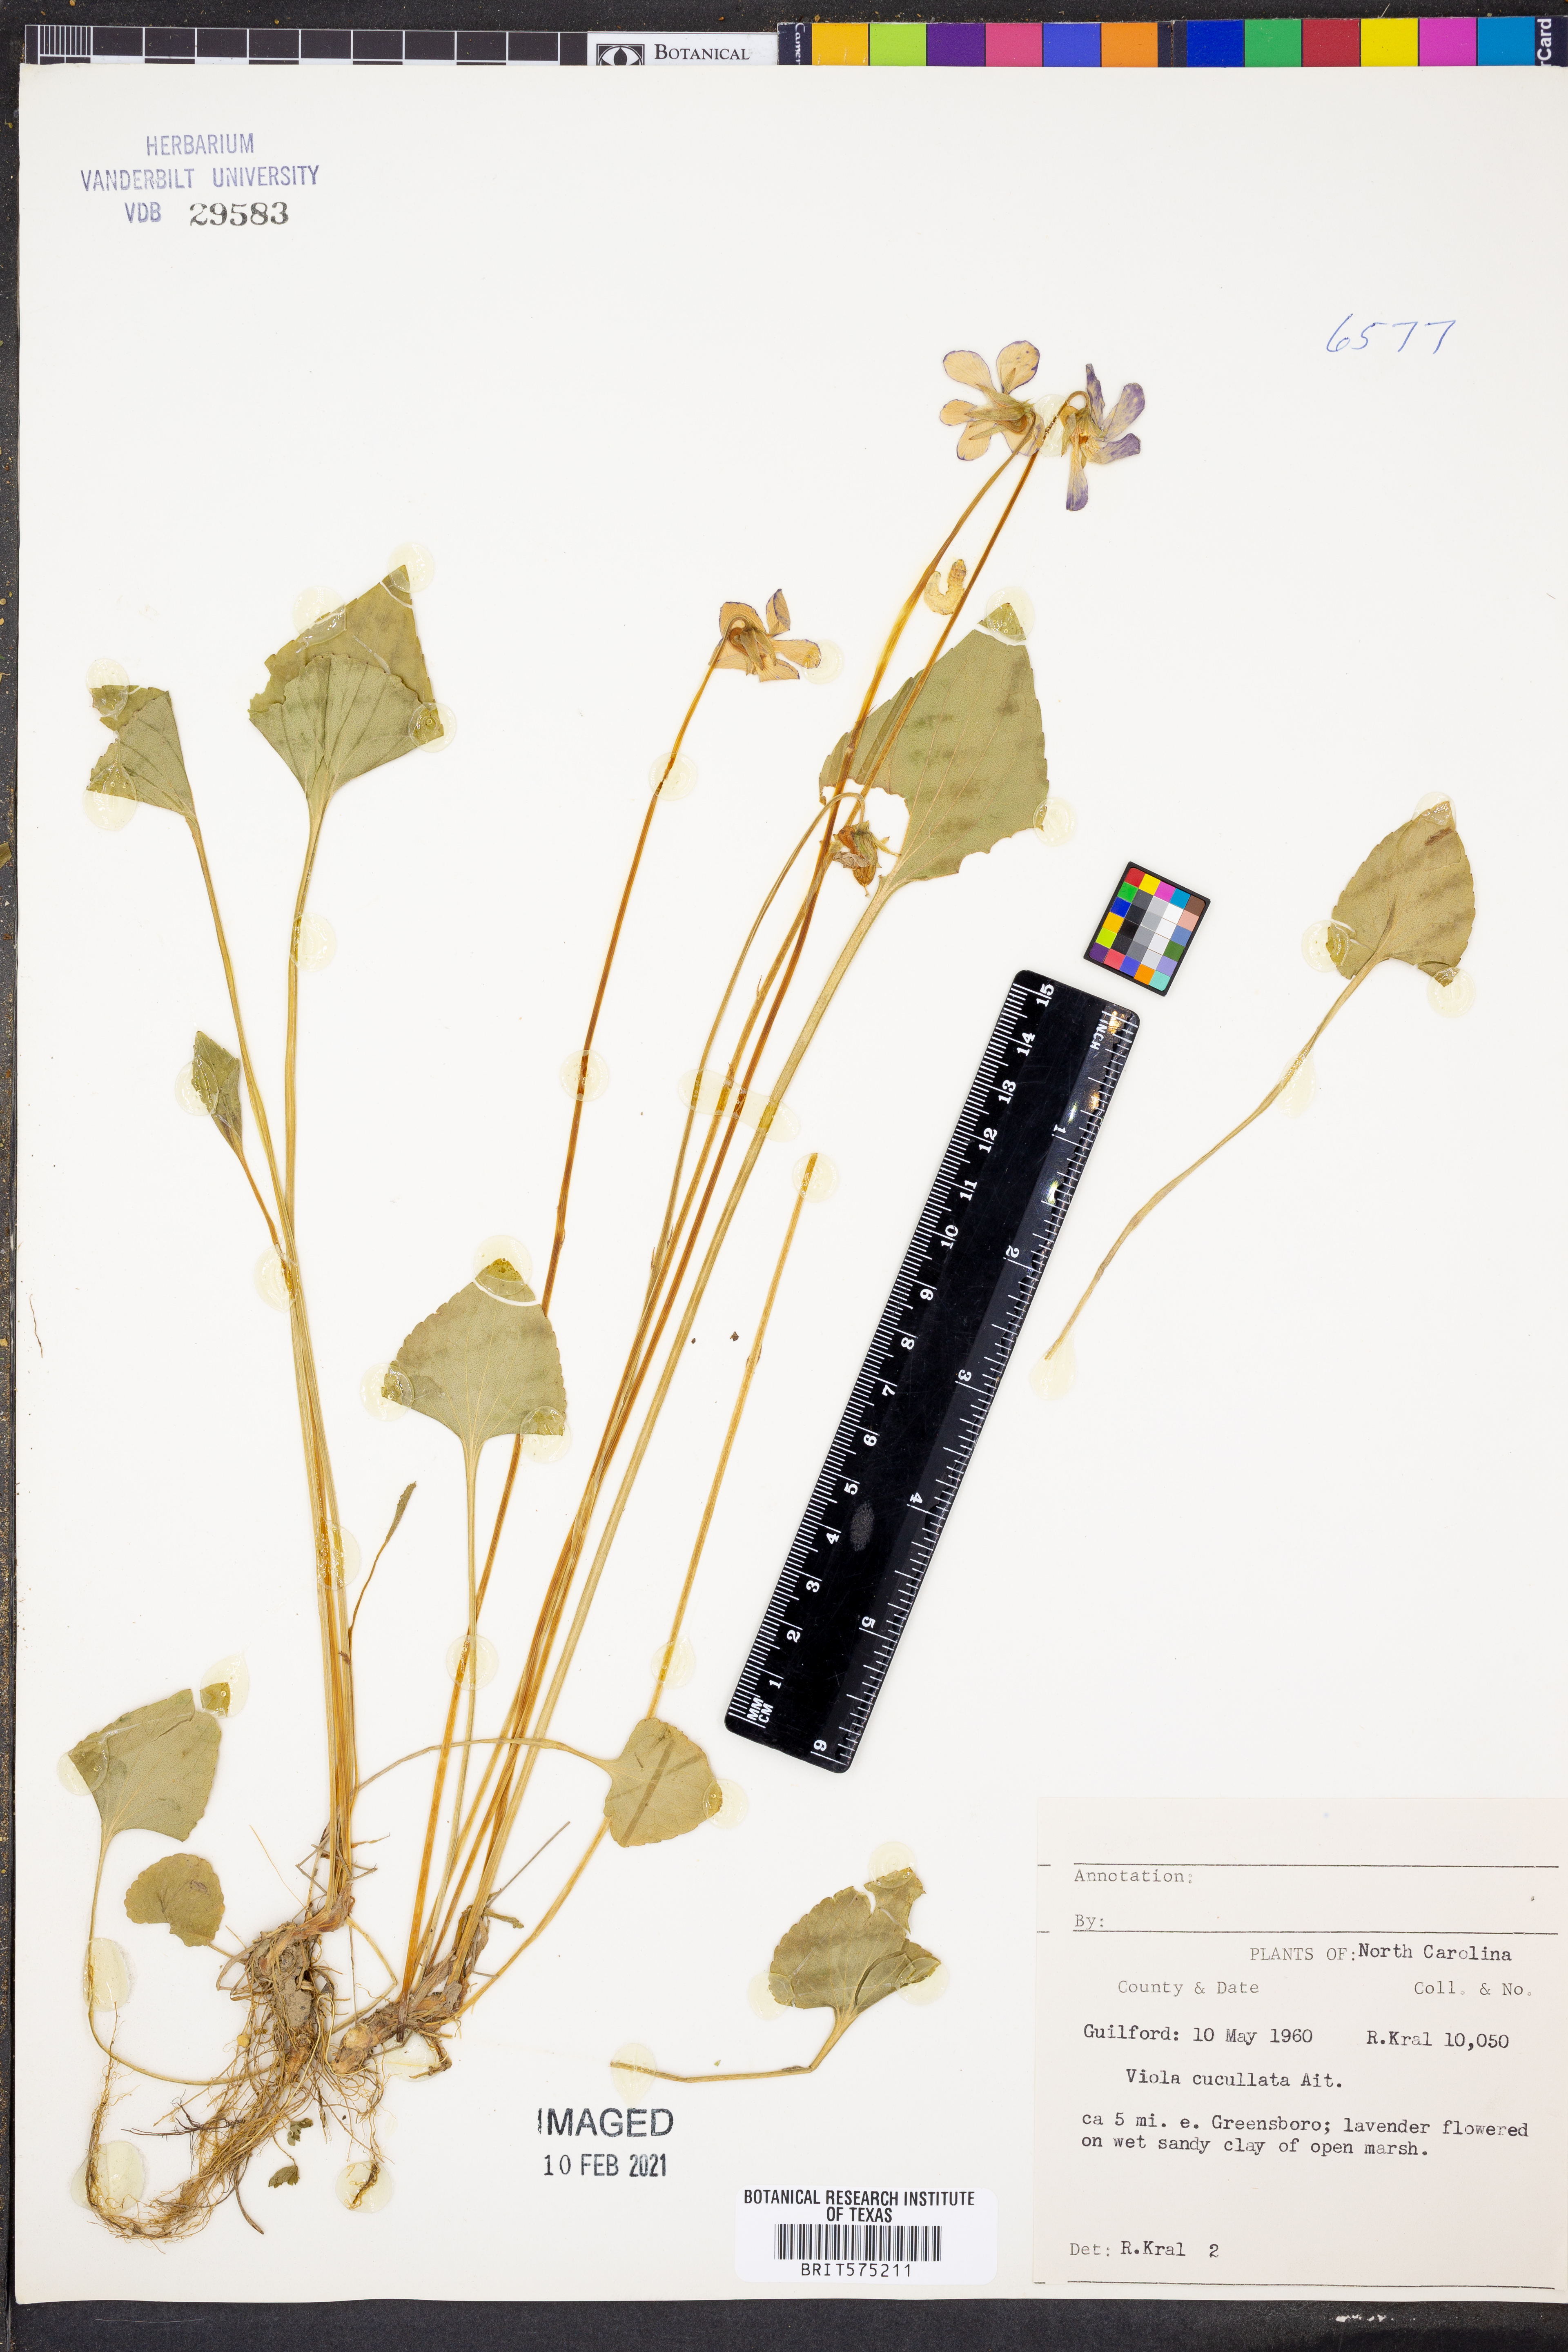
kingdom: Plantae
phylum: Tracheophyta
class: Magnoliopsida
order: Malpighiales
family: Violaceae
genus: Viola
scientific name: Viola cucullata
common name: Marsh blue violet
